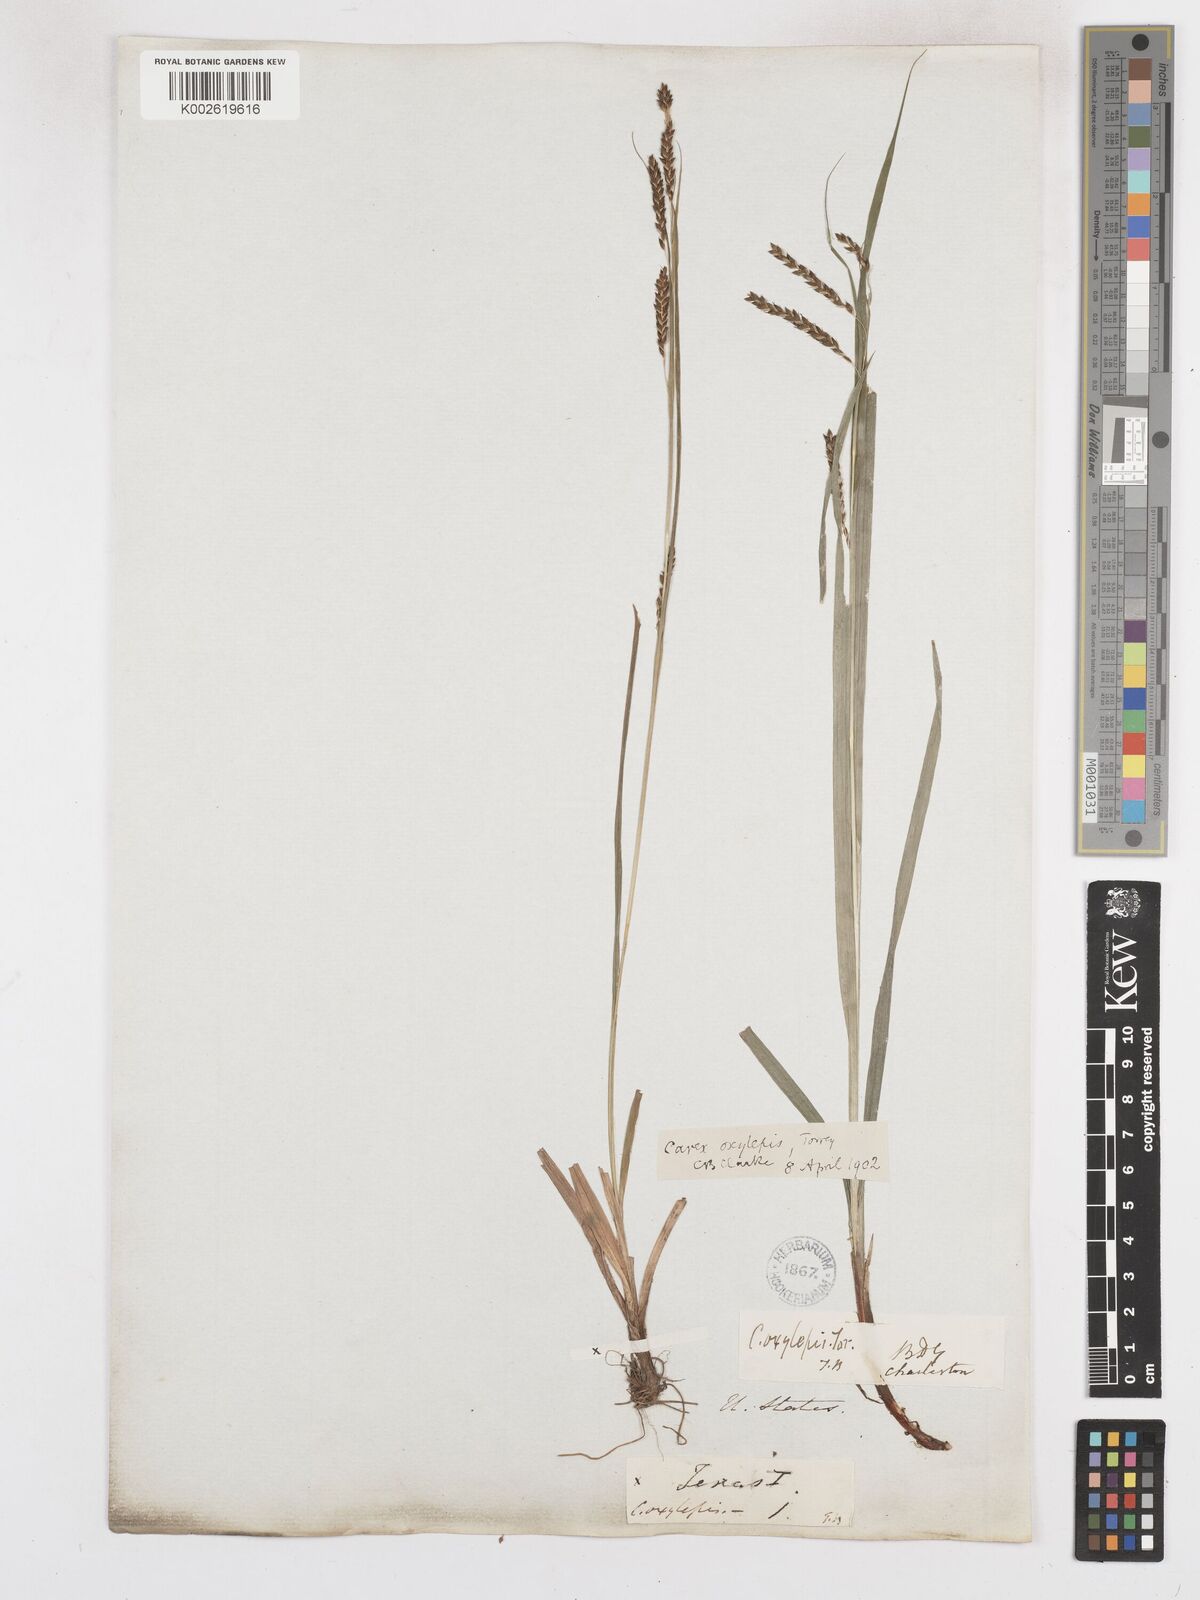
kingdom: Plantae
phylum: Tracheophyta
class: Liliopsida
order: Poales
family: Cyperaceae
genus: Carex
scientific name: Carex oxylepis
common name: Sharpscale sedge
